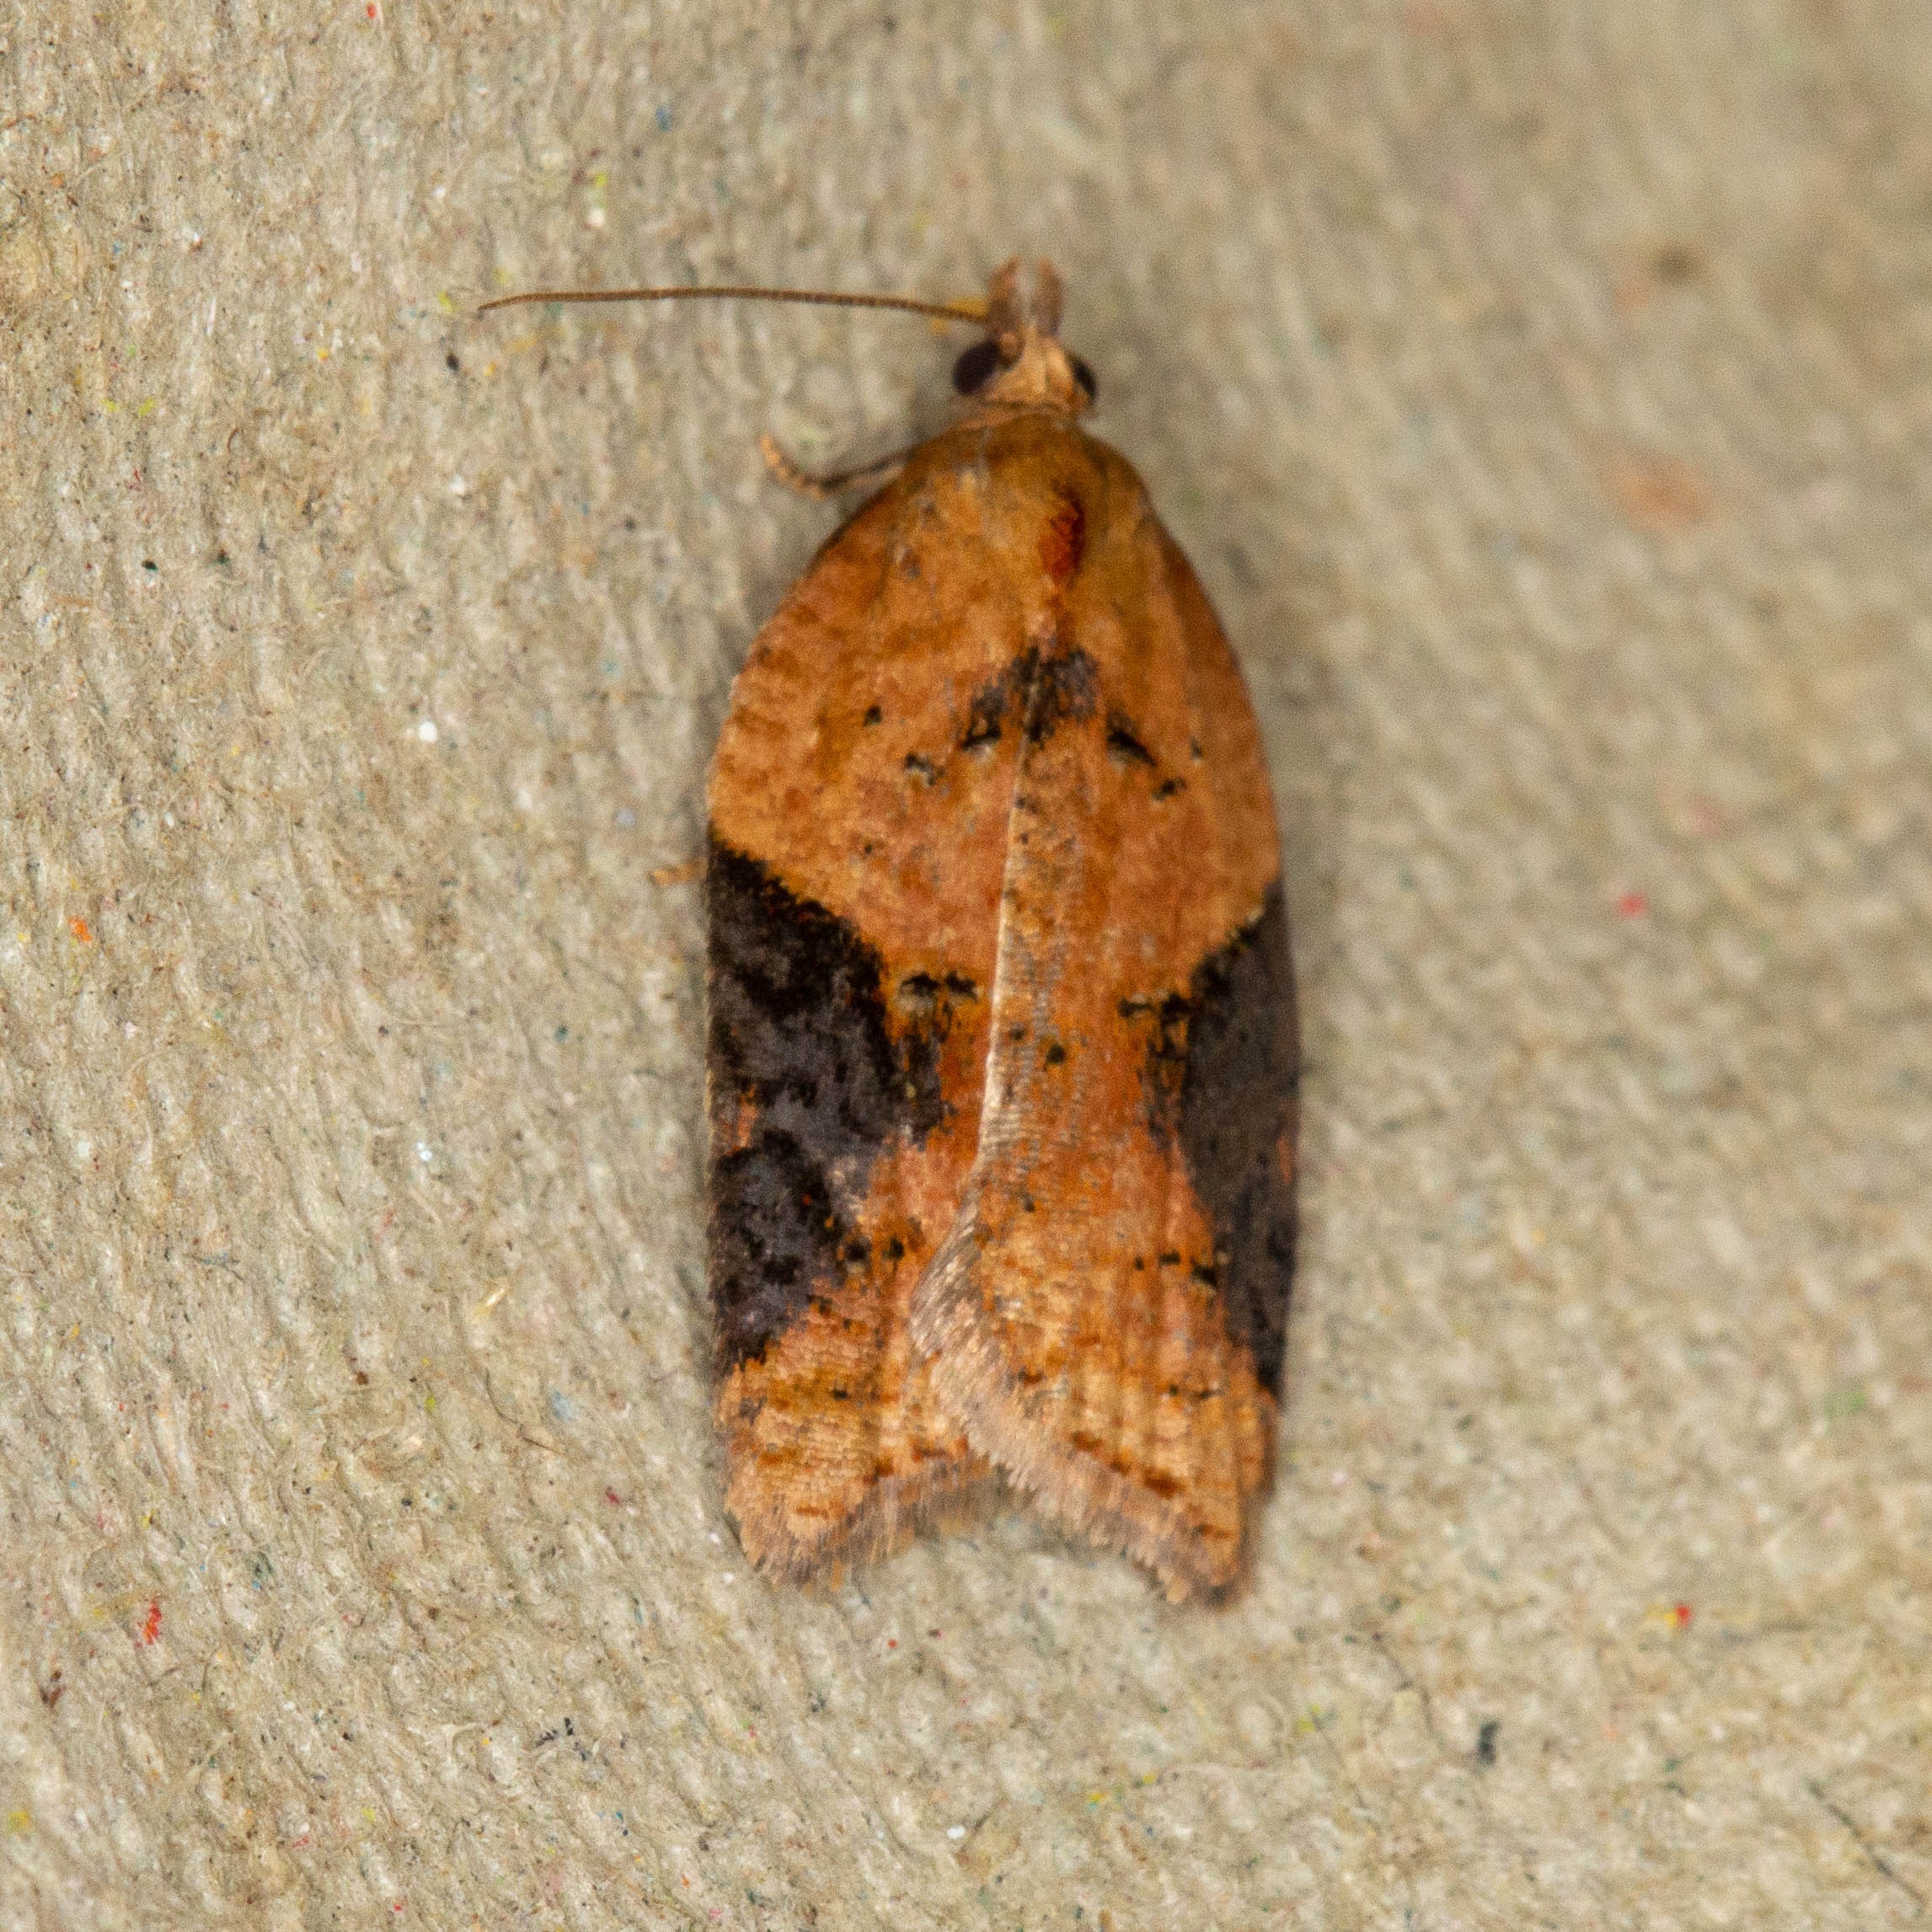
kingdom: Animalia
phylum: Arthropoda
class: Insecta
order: Lepidoptera
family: Tortricidae
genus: Acleris
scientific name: Acleris laterana
